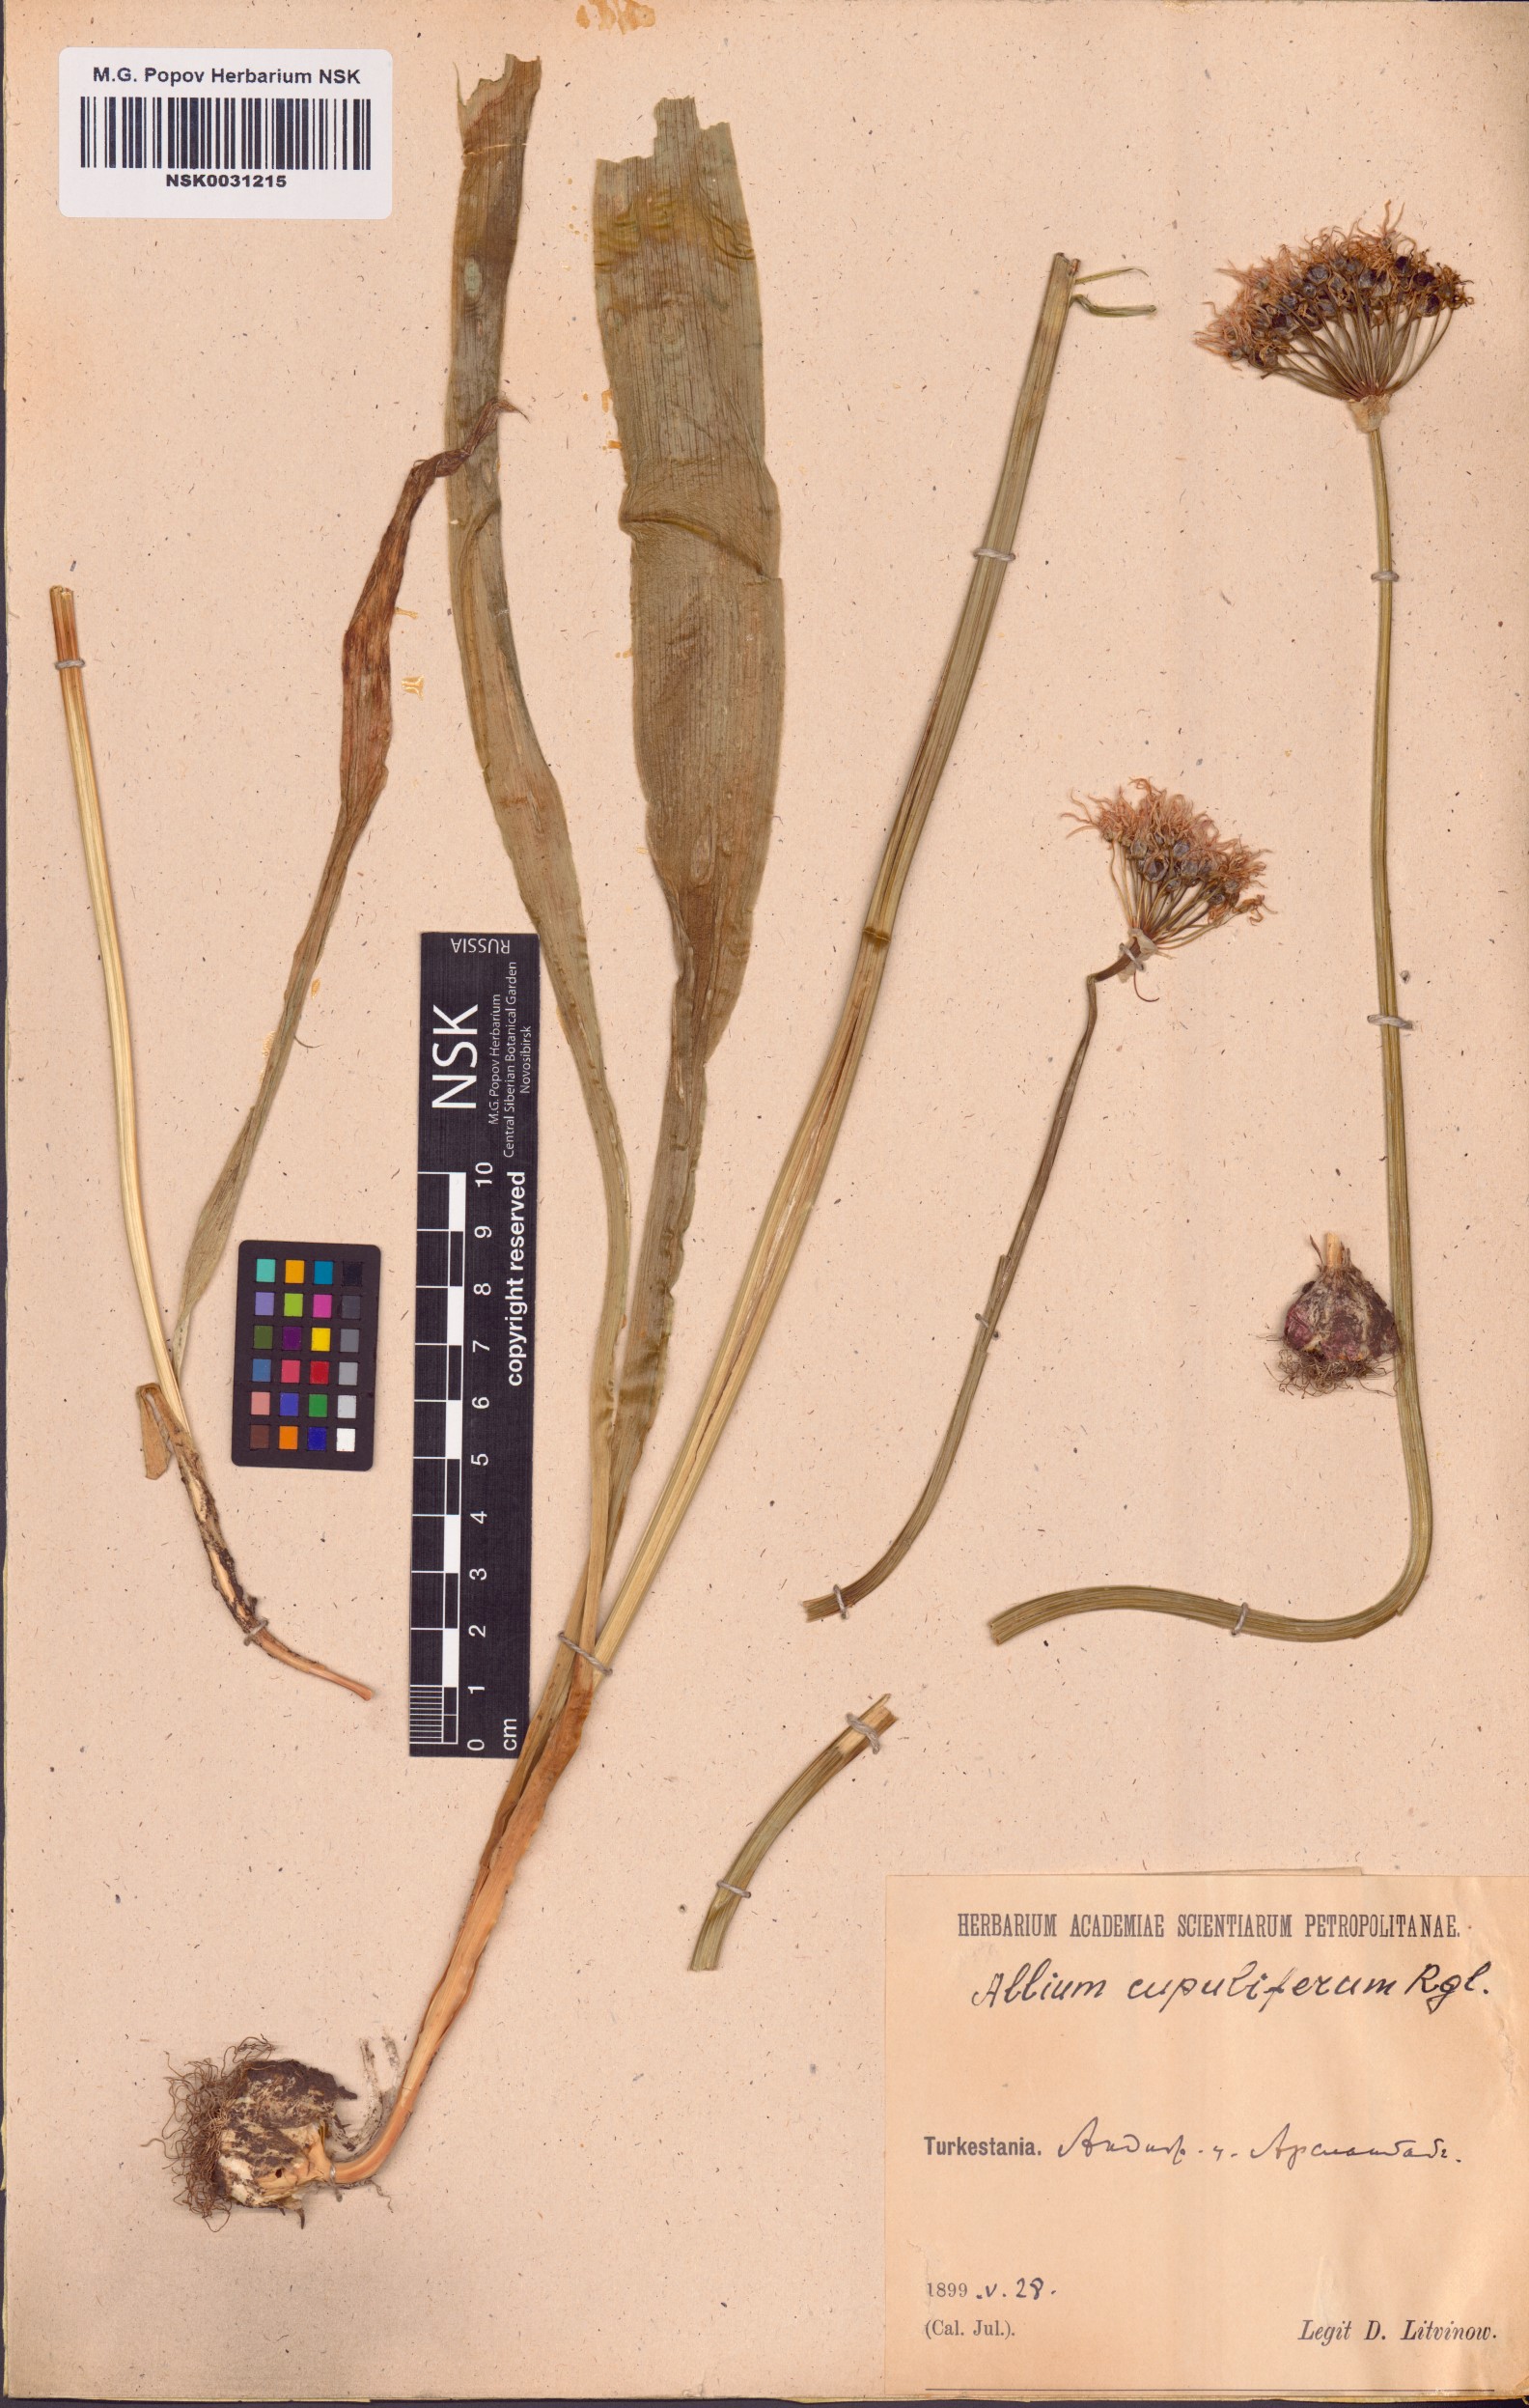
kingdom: Plantae
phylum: Tracheophyta
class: Liliopsida
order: Asparagales
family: Amaryllidaceae
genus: Allium
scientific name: Allium cupuliferum
